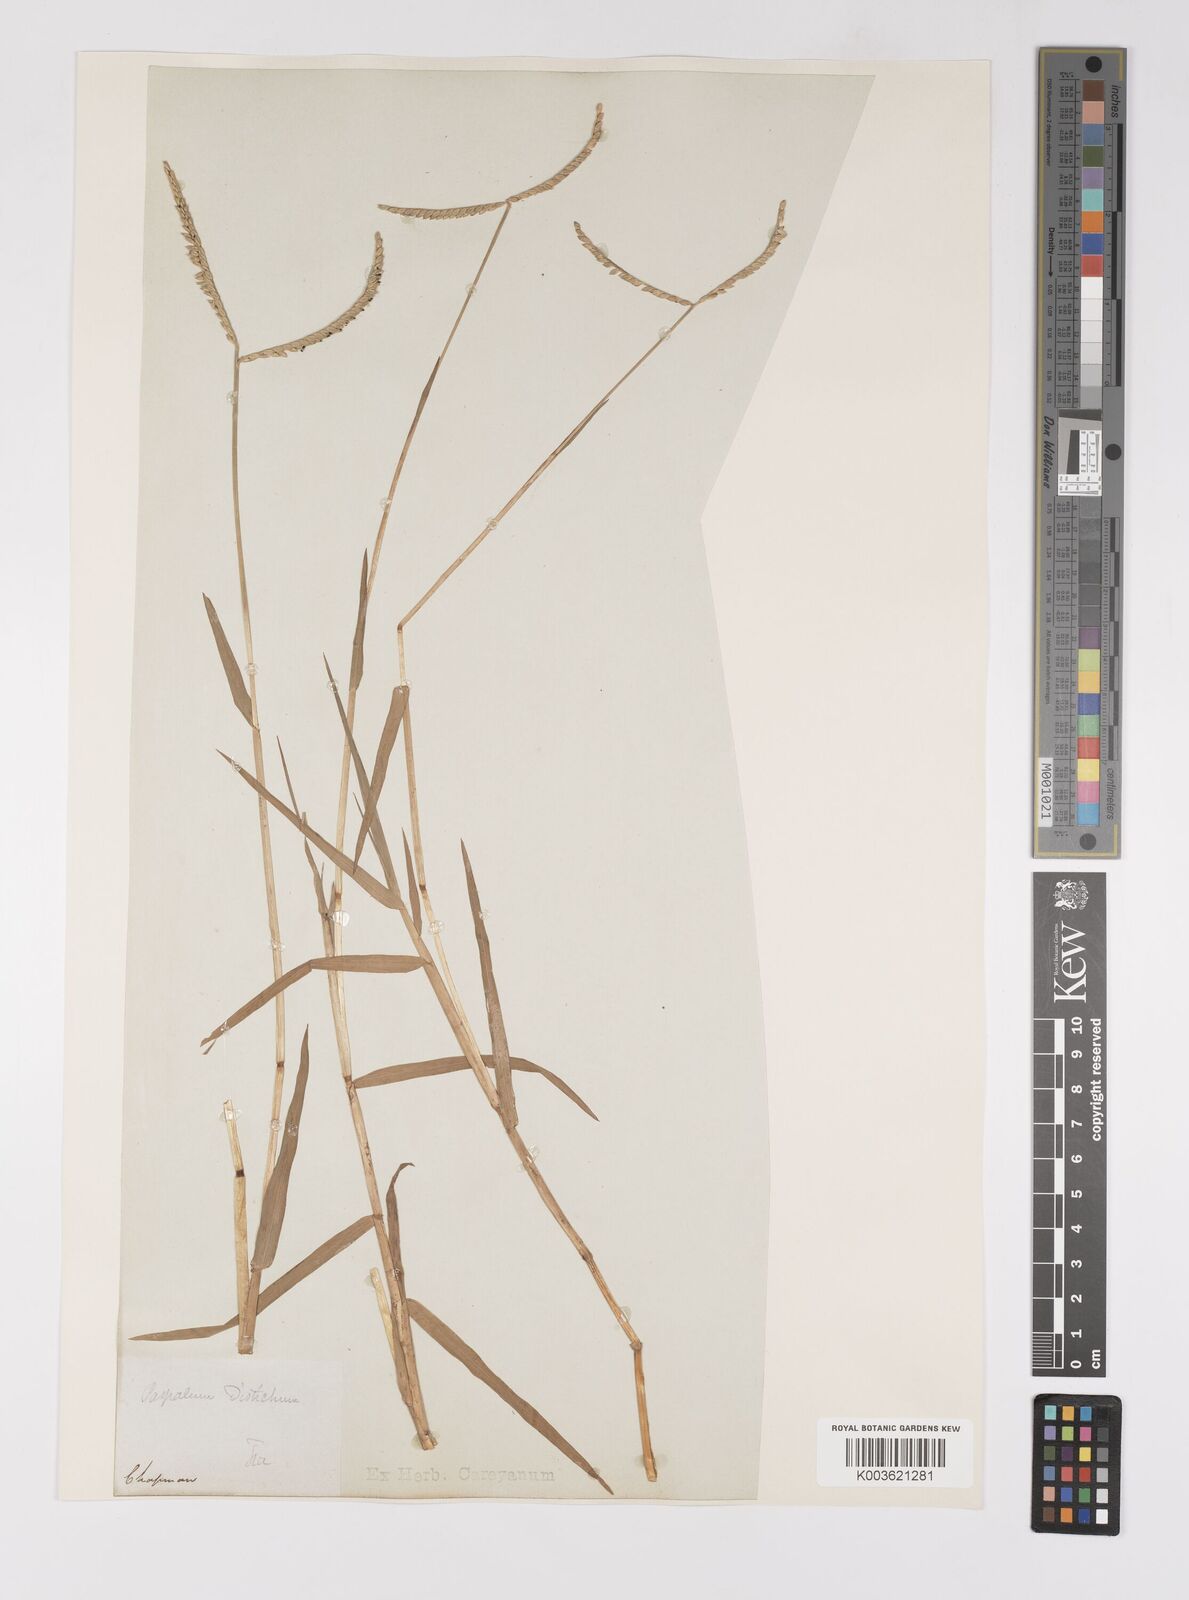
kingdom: Plantae
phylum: Tracheophyta
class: Liliopsida
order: Poales
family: Poaceae
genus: Paspalum
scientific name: Paspalum distichum
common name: Knotgrass
